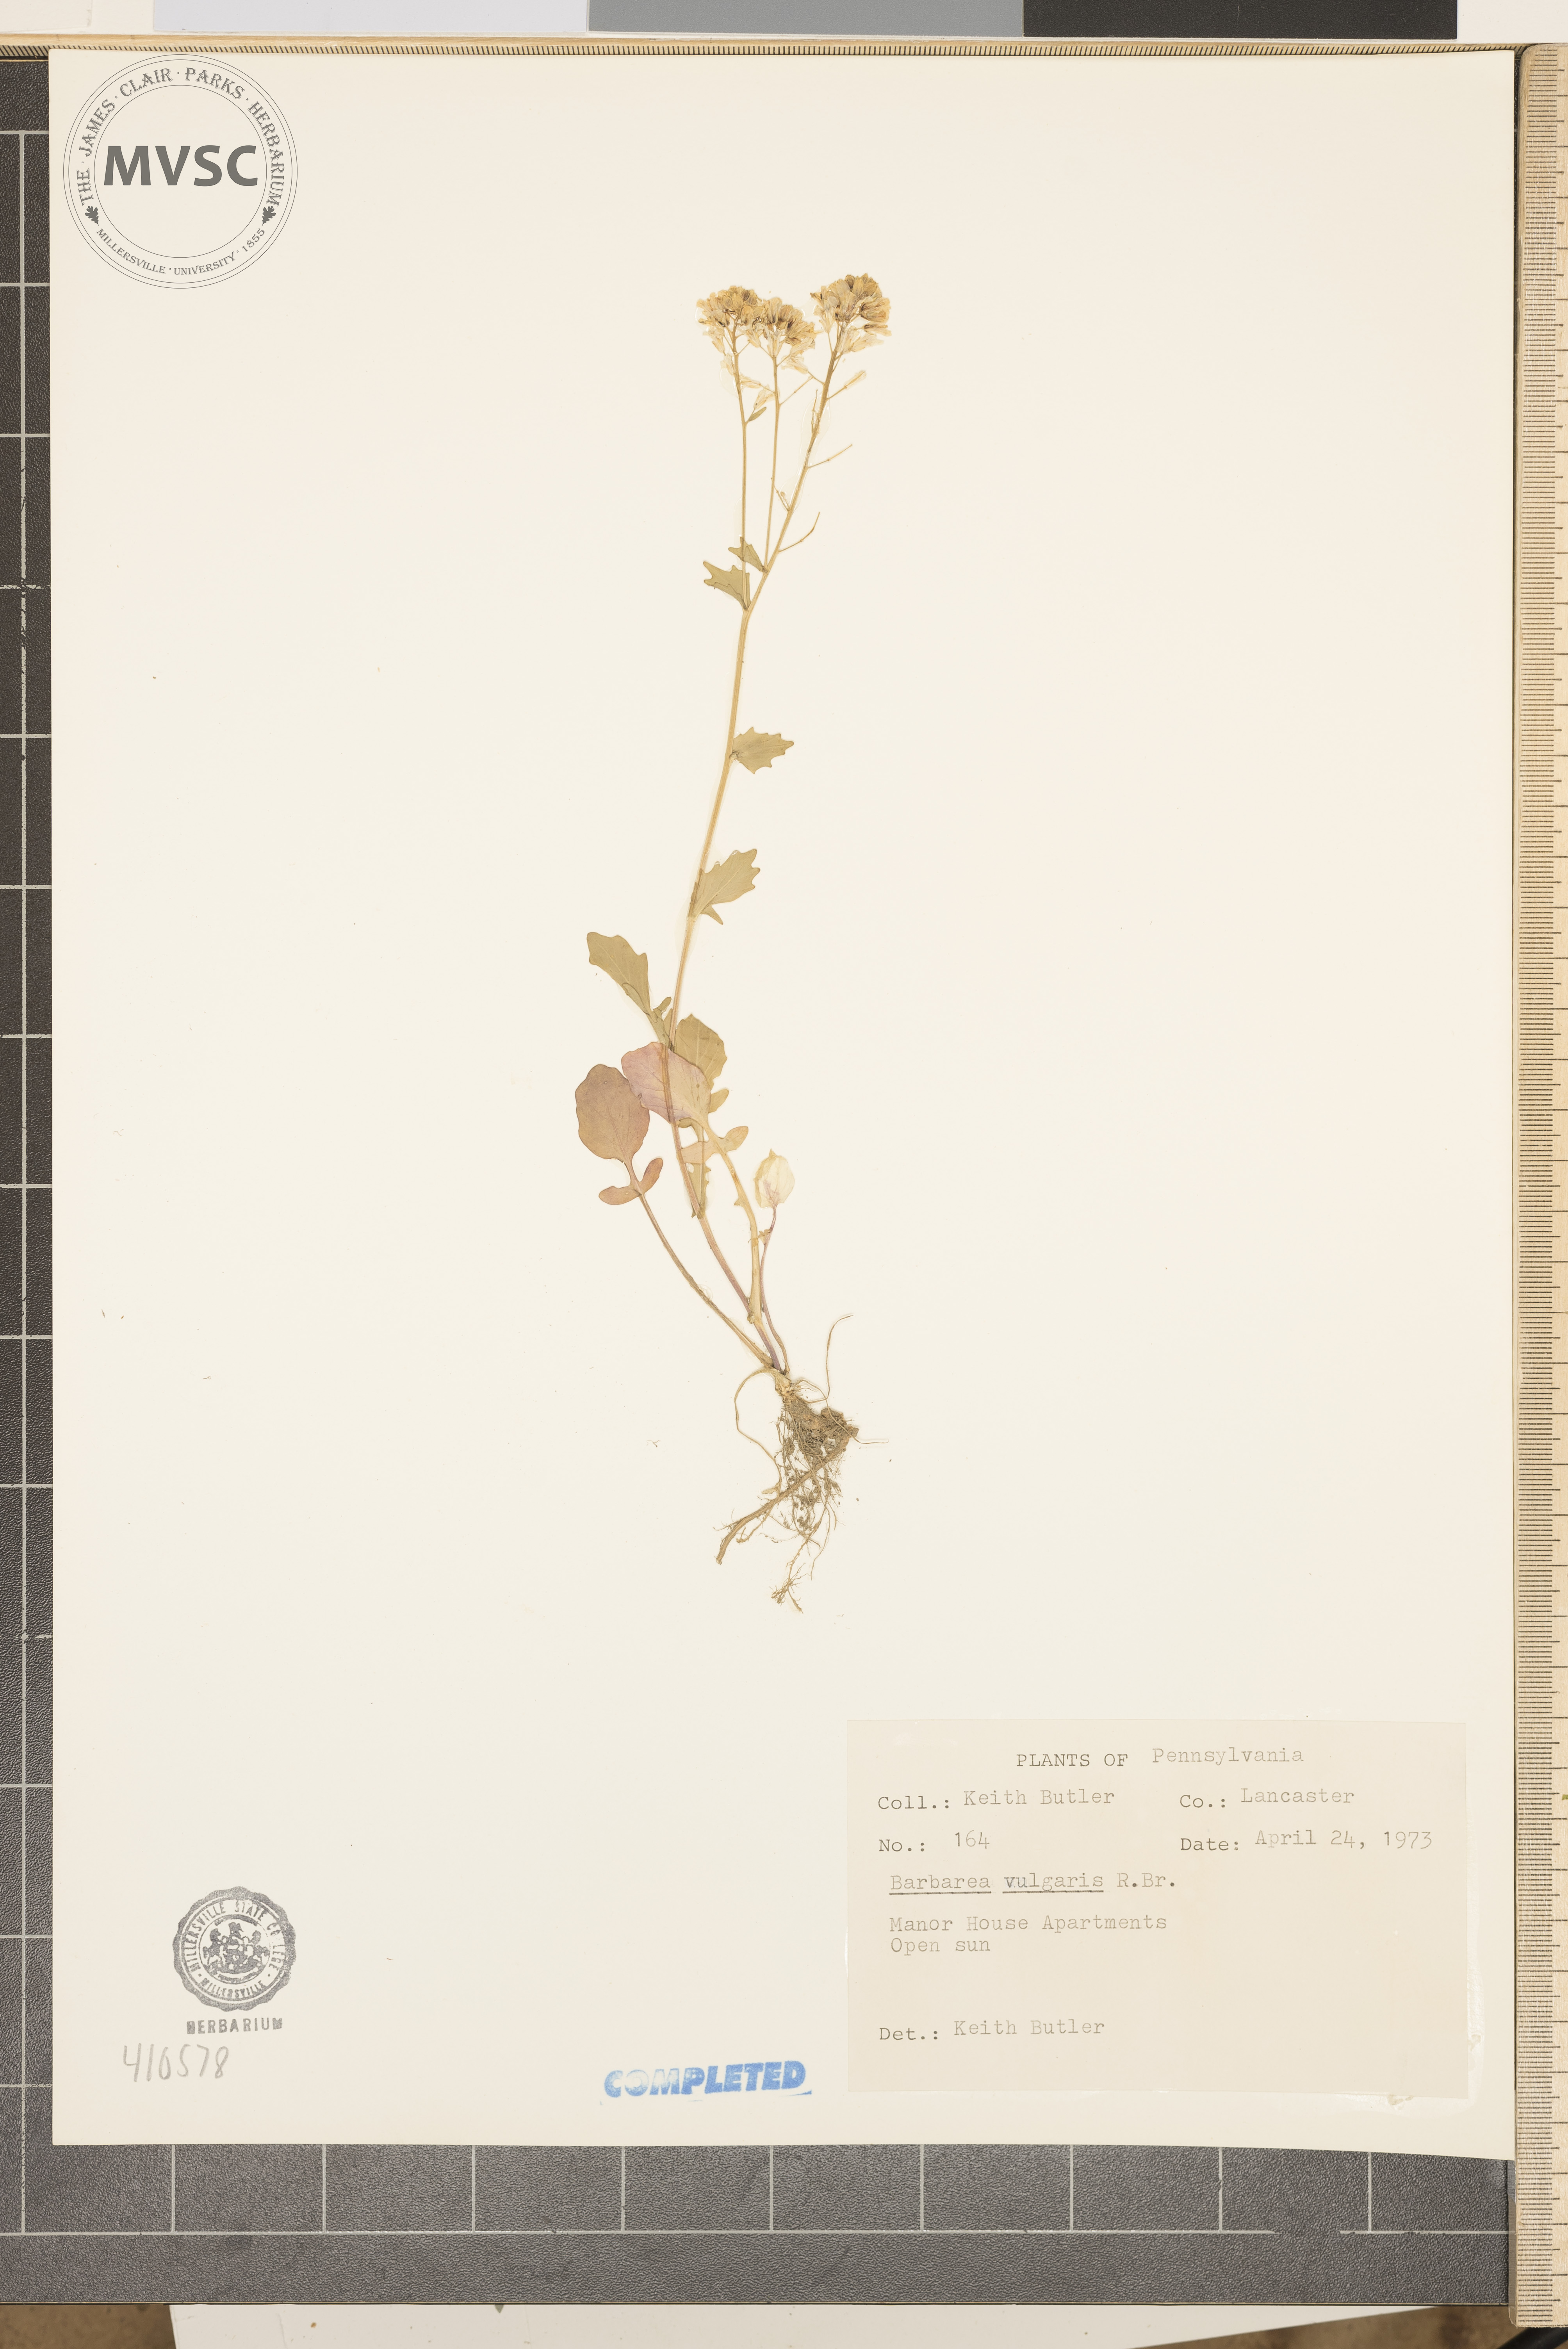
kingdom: Plantae
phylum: Tracheophyta
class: Magnoliopsida
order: Brassicales
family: Brassicaceae
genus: Barbarea
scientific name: Barbarea vulgaris
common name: Cressy-greens
